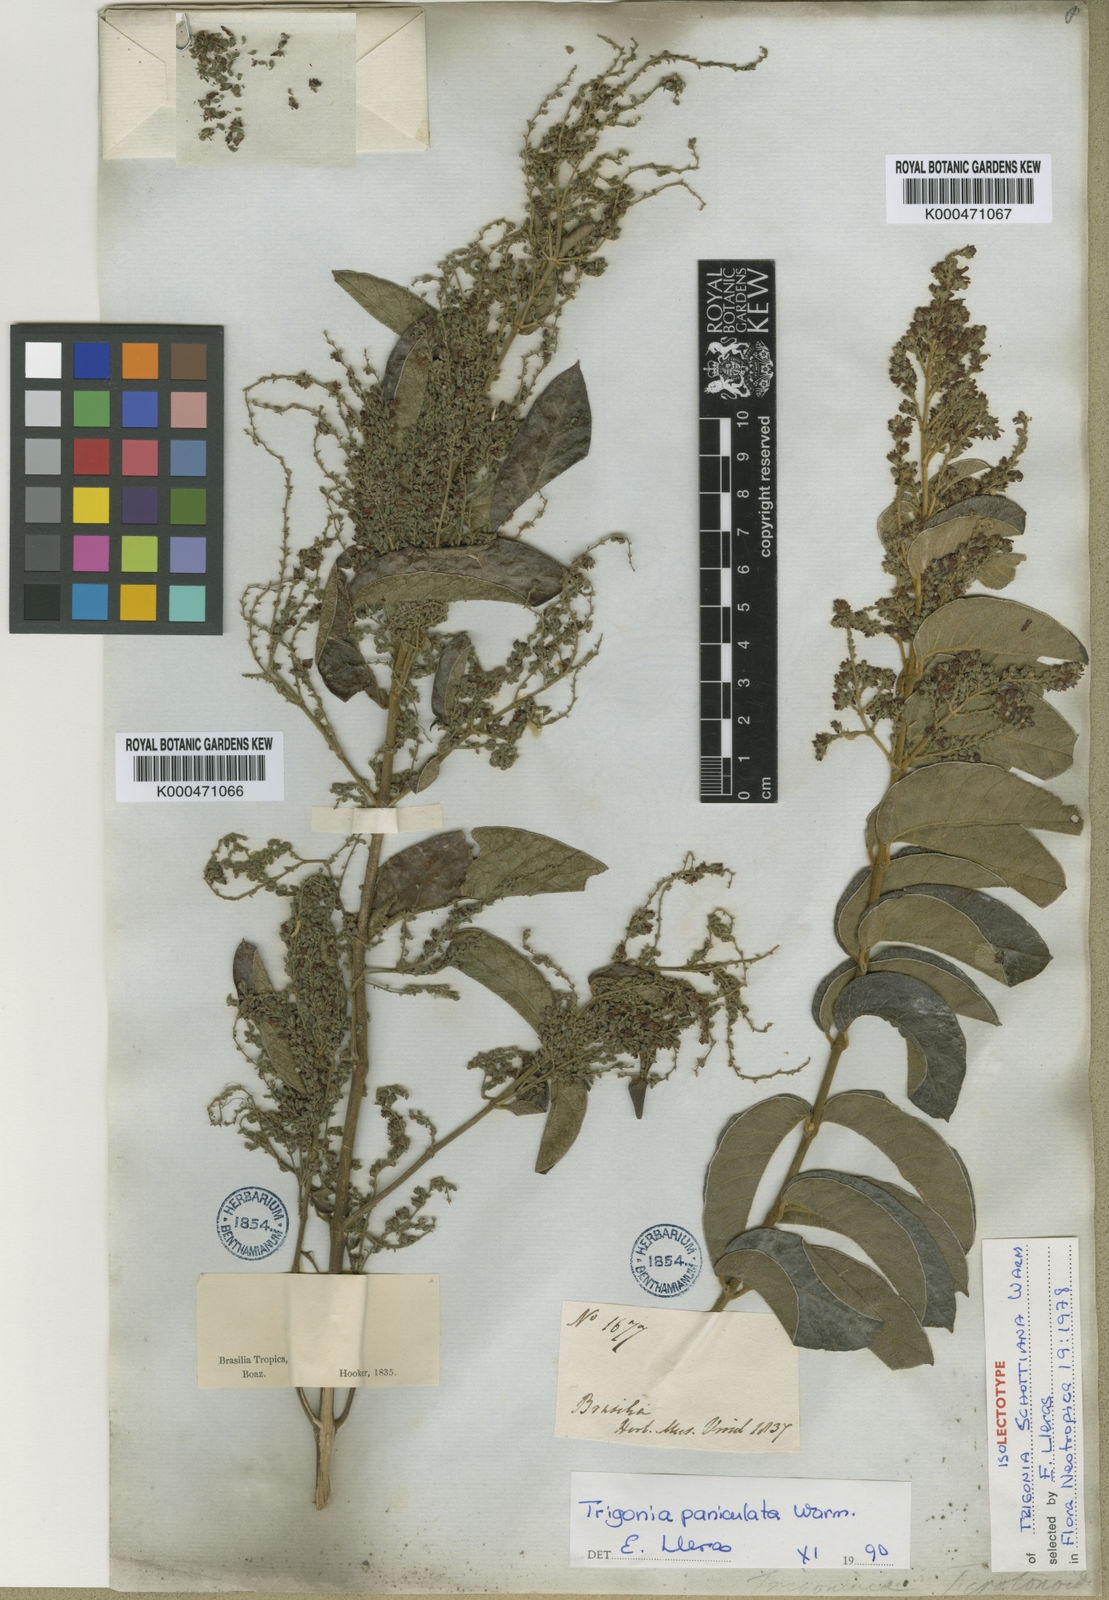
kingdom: Plantae
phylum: Tracheophyta
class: Magnoliopsida
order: Malpighiales
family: Trigoniaceae
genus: Trigonia
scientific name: Trigonia paniculata
